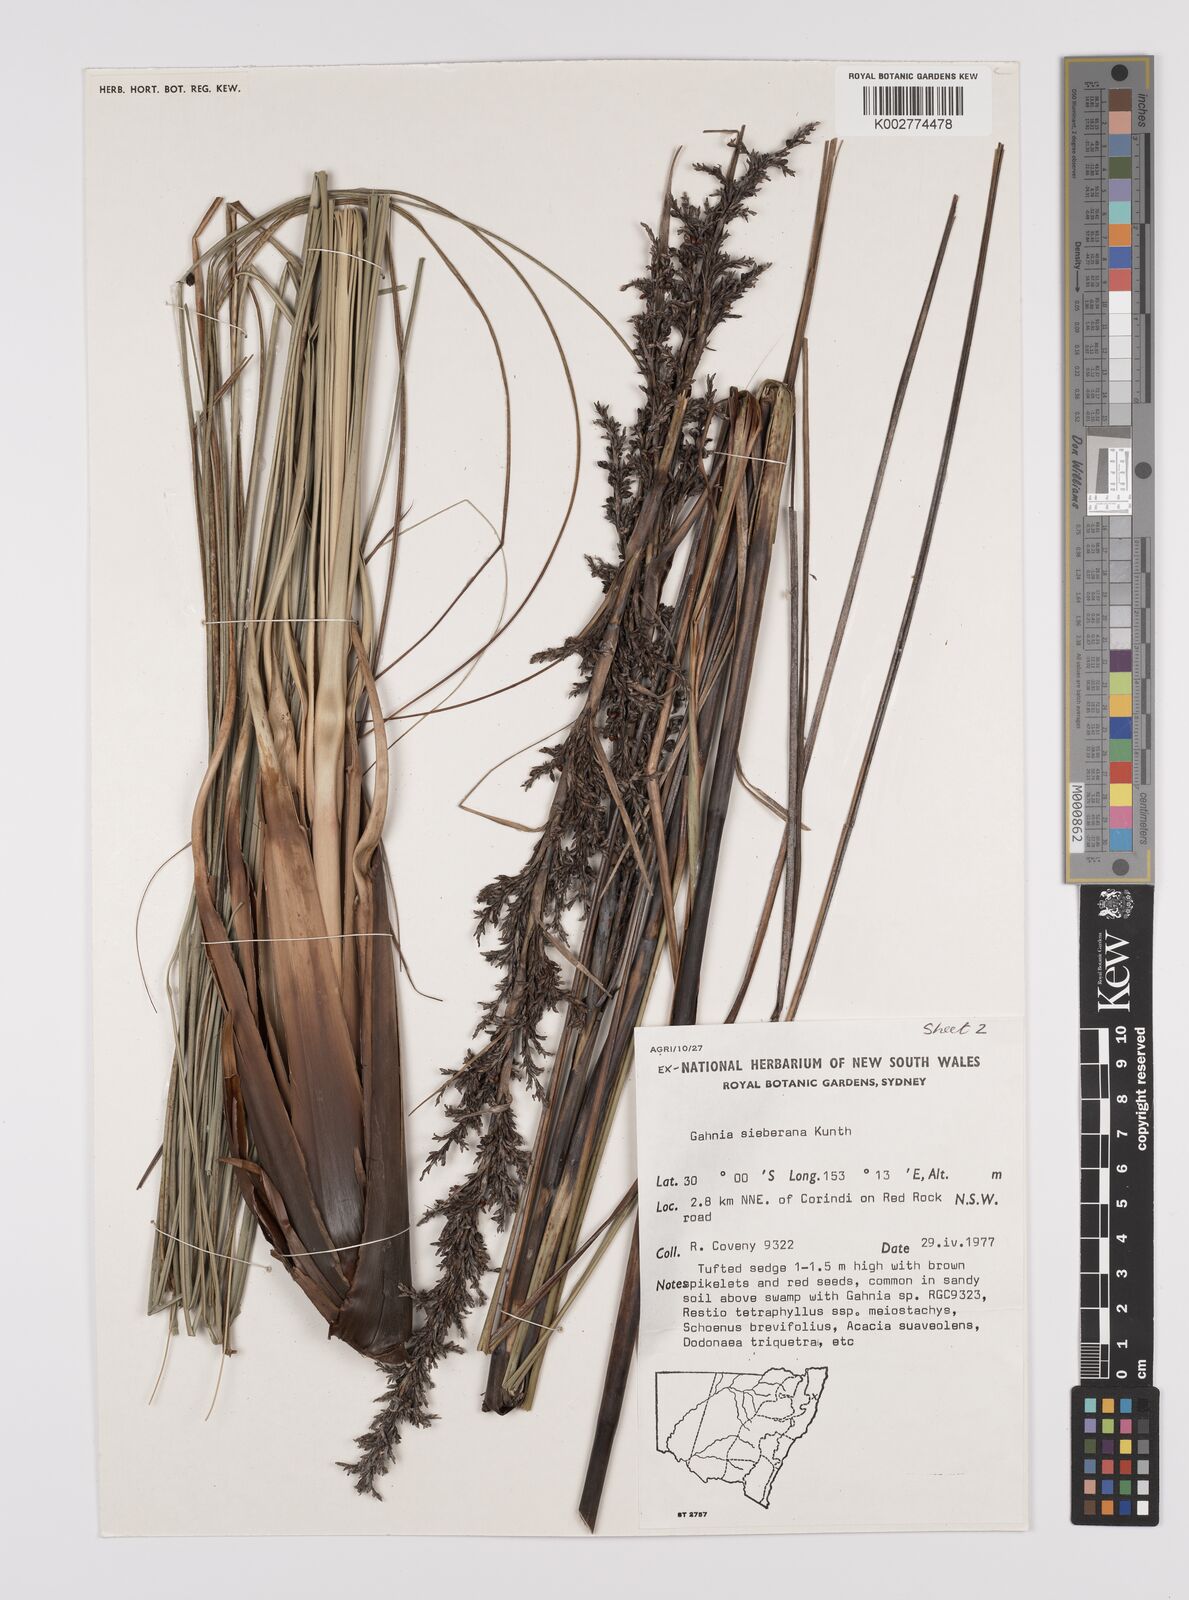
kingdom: Plantae
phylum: Tracheophyta
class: Liliopsida
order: Poales
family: Cyperaceae
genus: Gahnia
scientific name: Gahnia sieberiana
